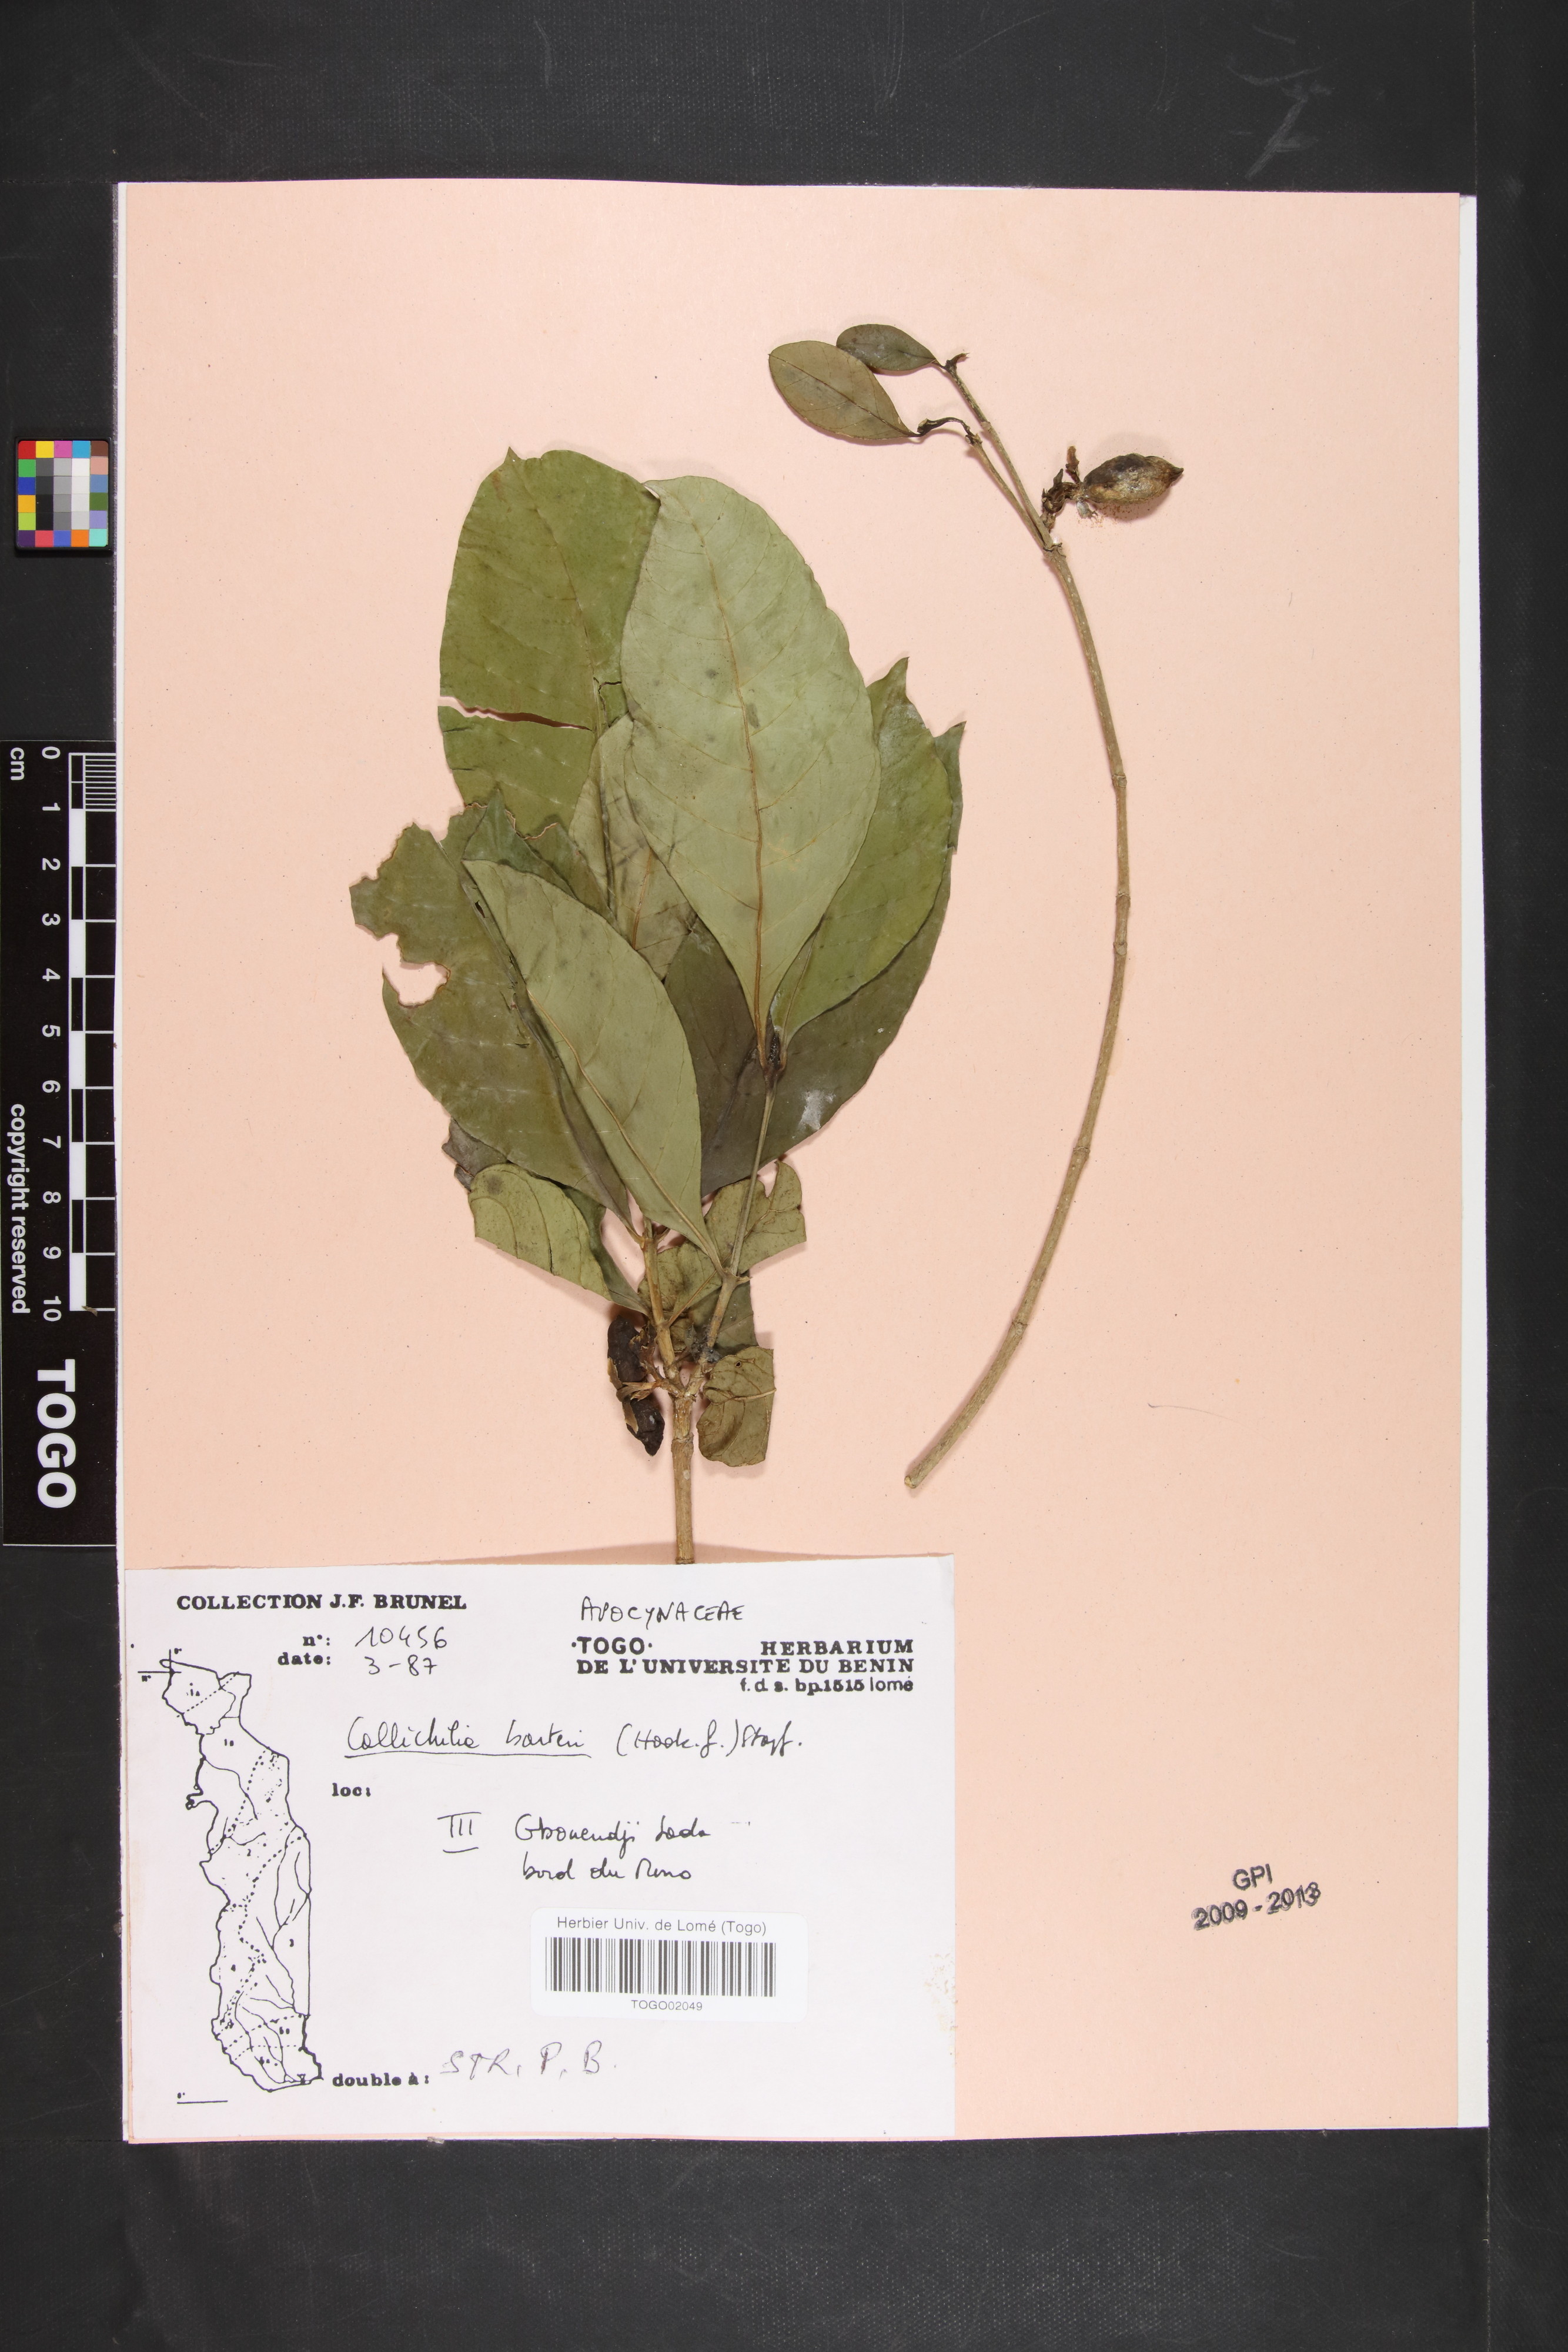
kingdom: Plantae
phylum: Tracheophyta
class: Magnoliopsida
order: Gentianales
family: Apocynaceae
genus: Callichilia
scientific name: Callichilia barteri
